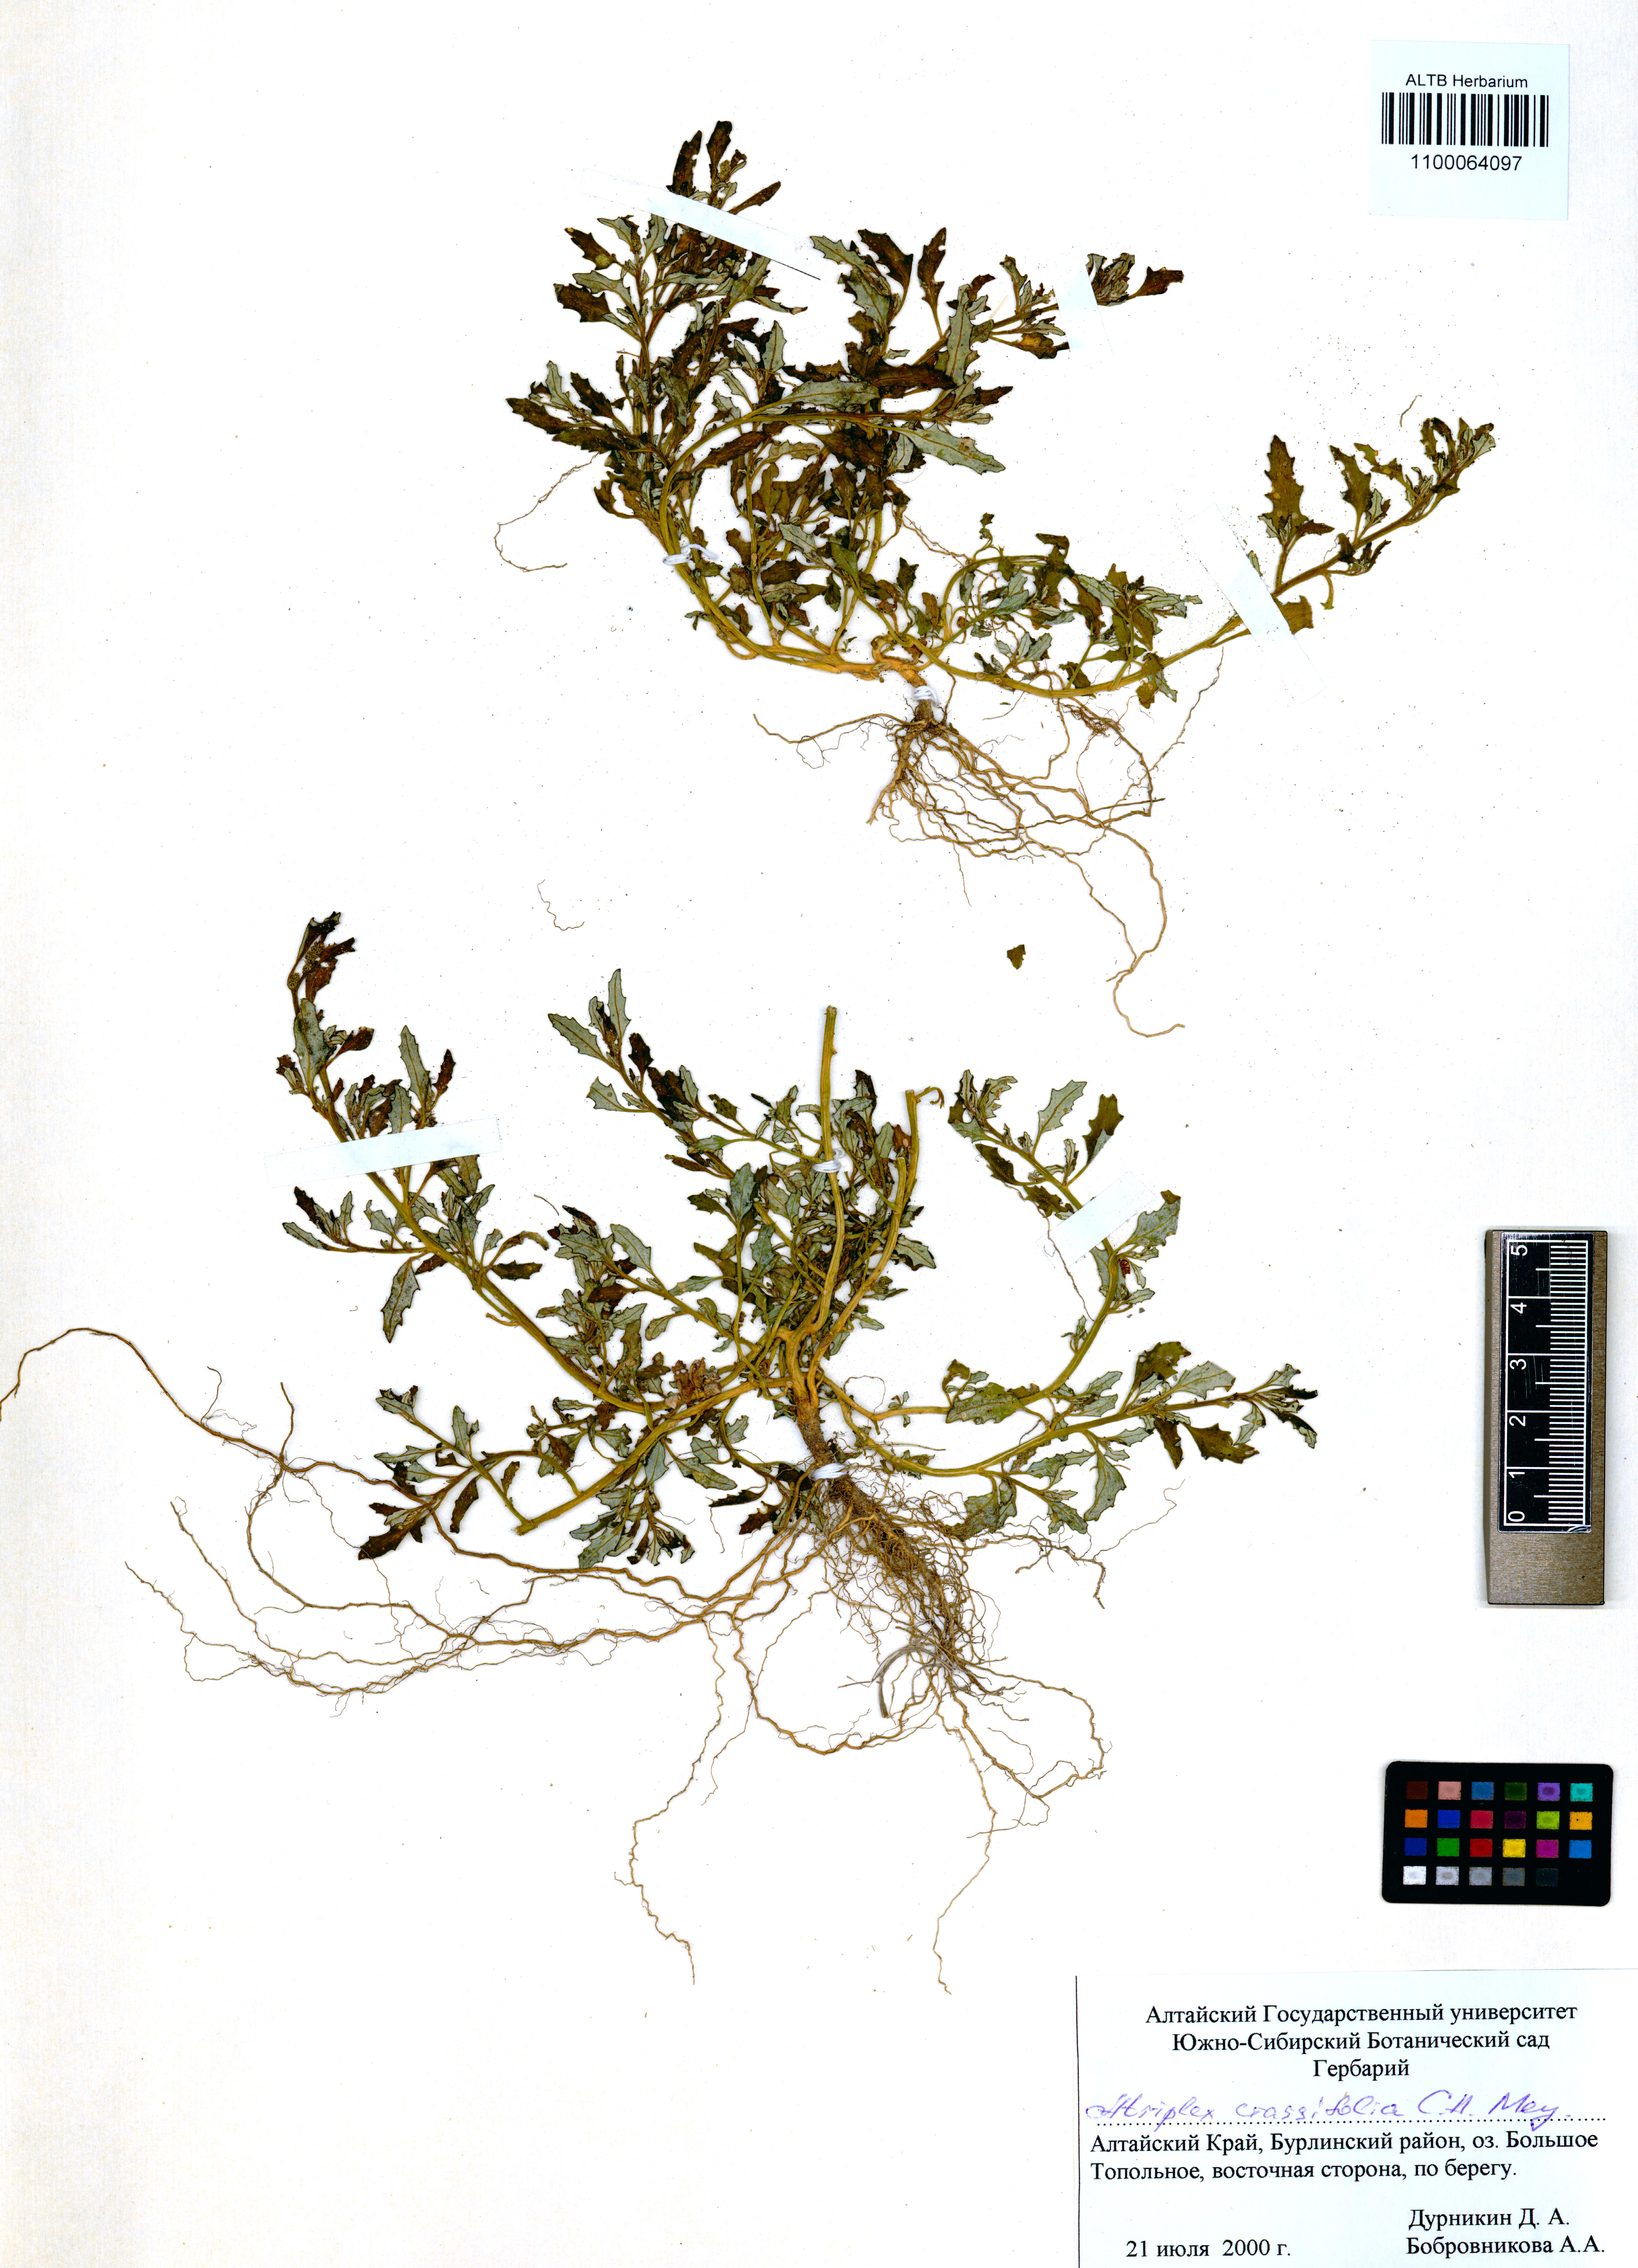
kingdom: Plantae
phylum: Tracheophyta
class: Magnoliopsida
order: Caryophyllales
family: Amaranthaceae
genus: Atriplex
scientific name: Atriplex crassifolia
